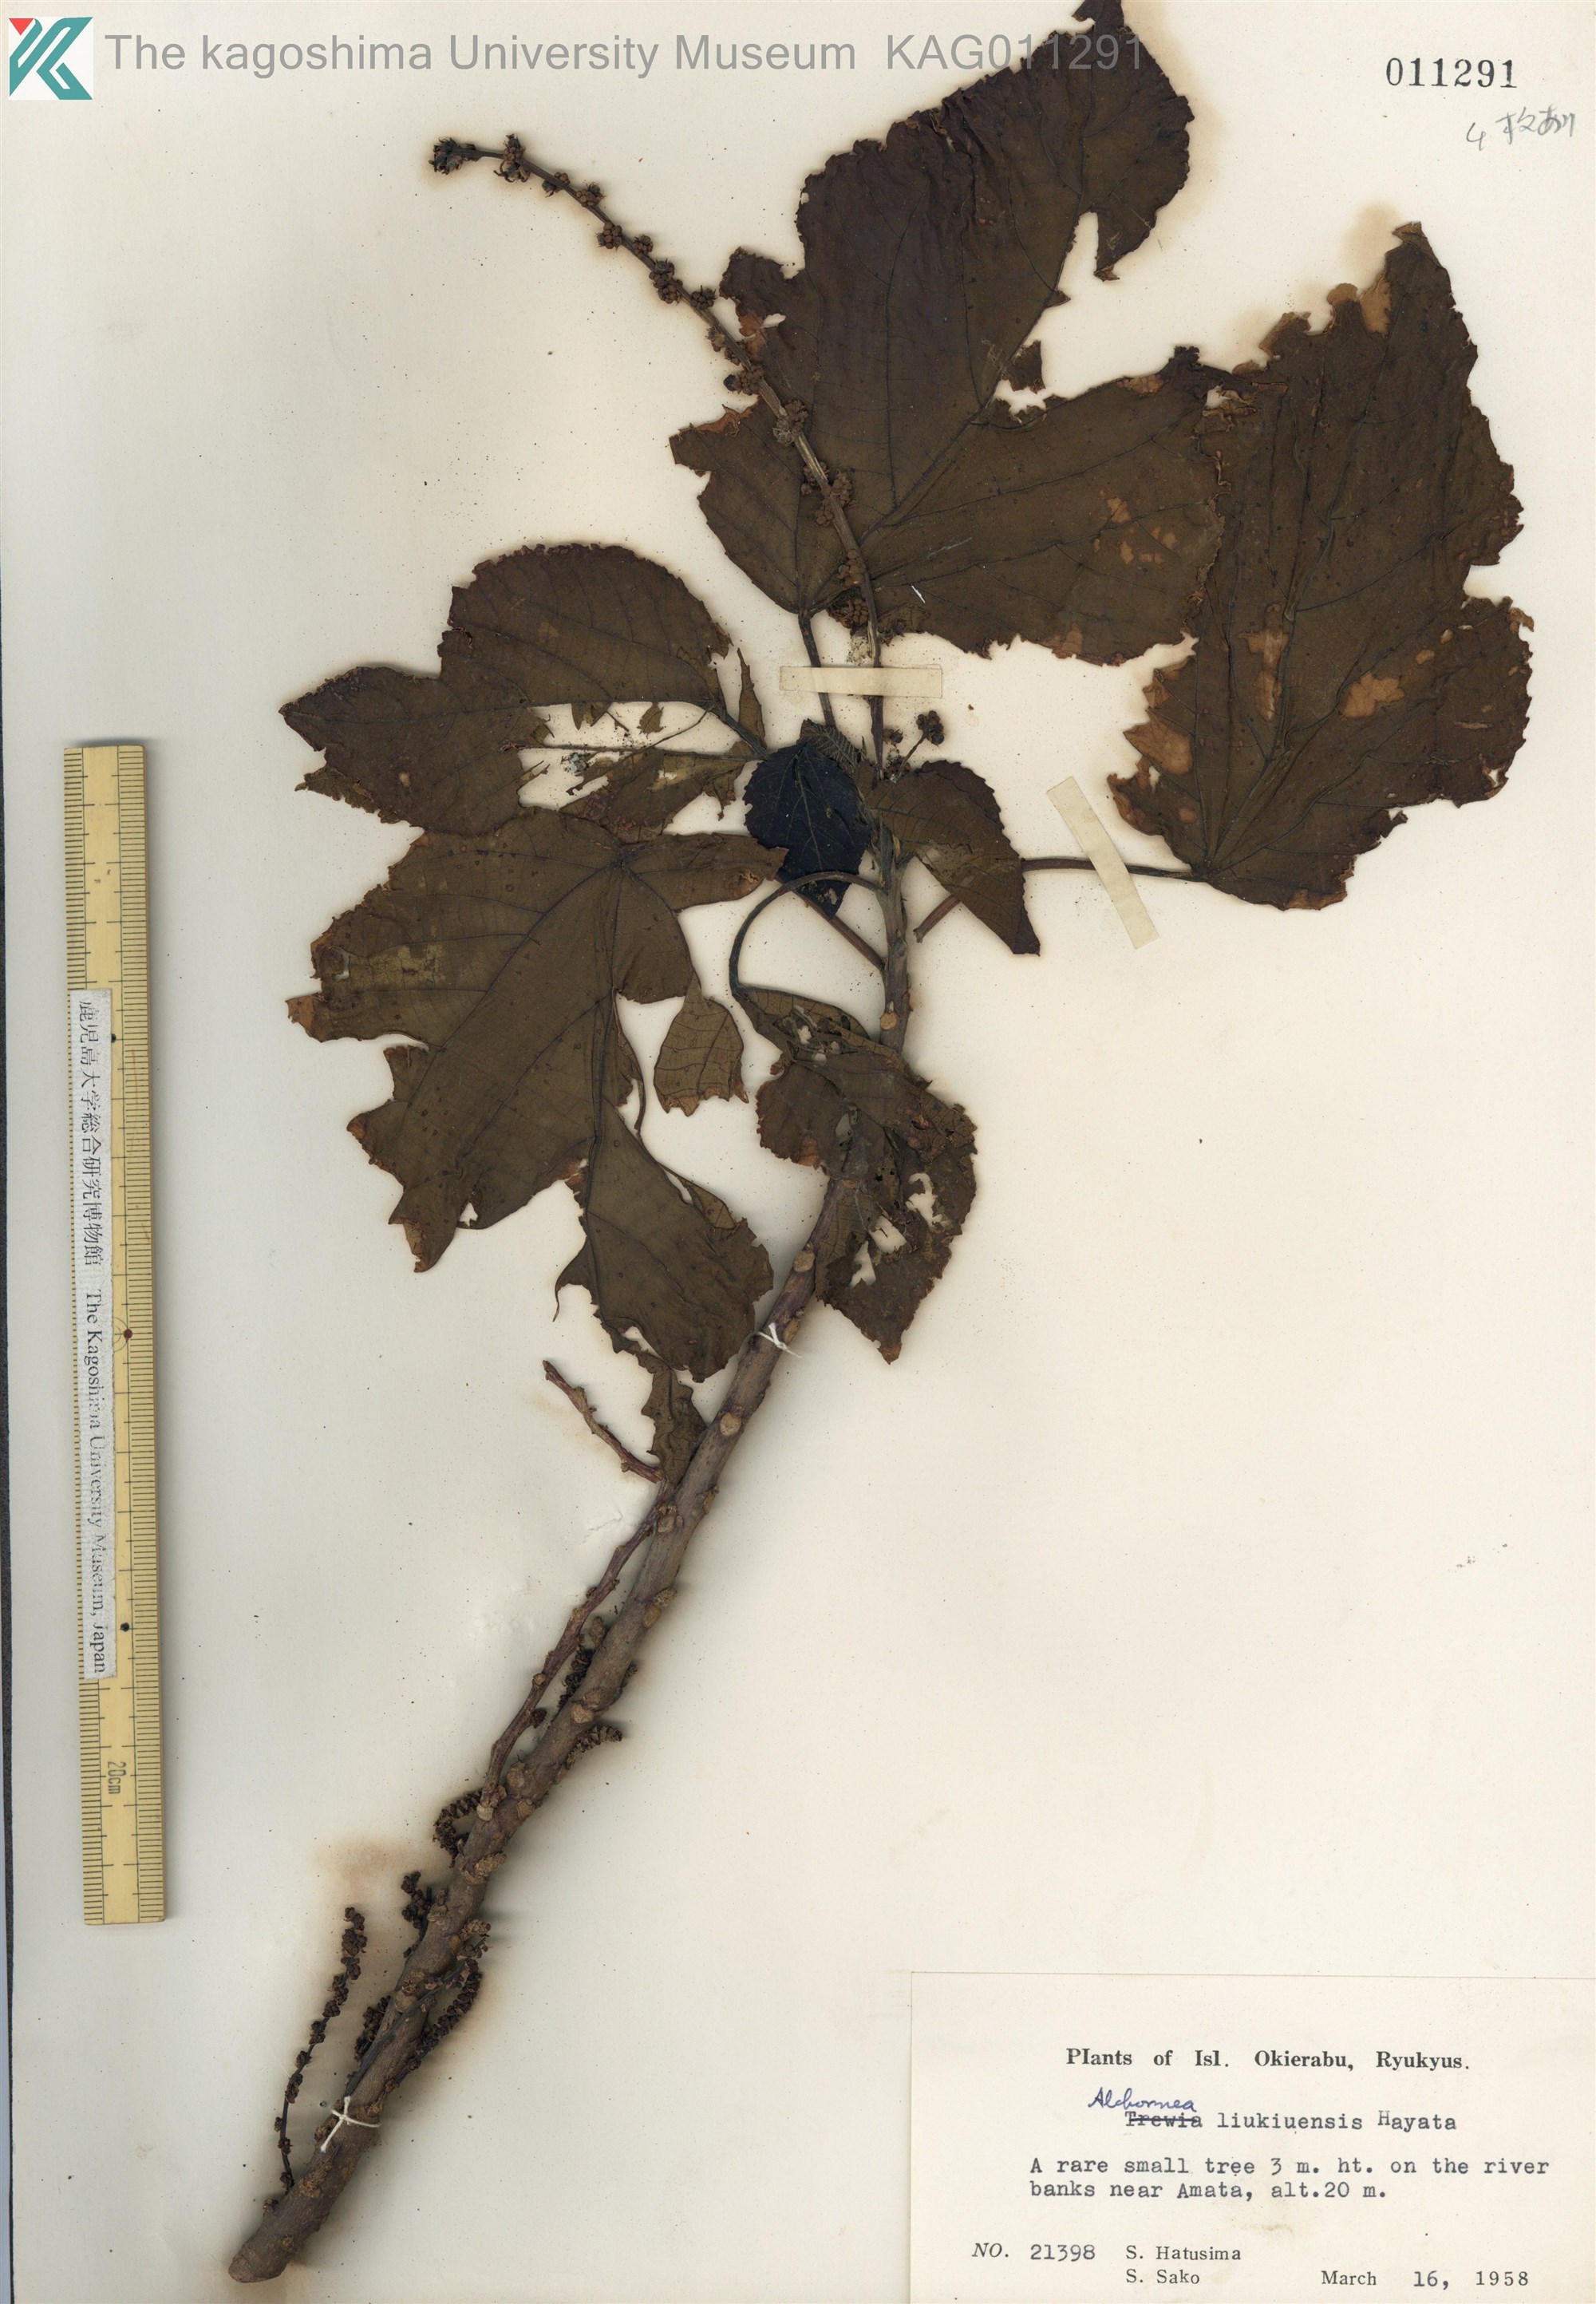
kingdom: Plantae
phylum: Tracheophyta
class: Magnoliopsida
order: Malpighiales
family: Euphorbiaceae
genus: Alchornea
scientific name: Alchornea liukiuensis
